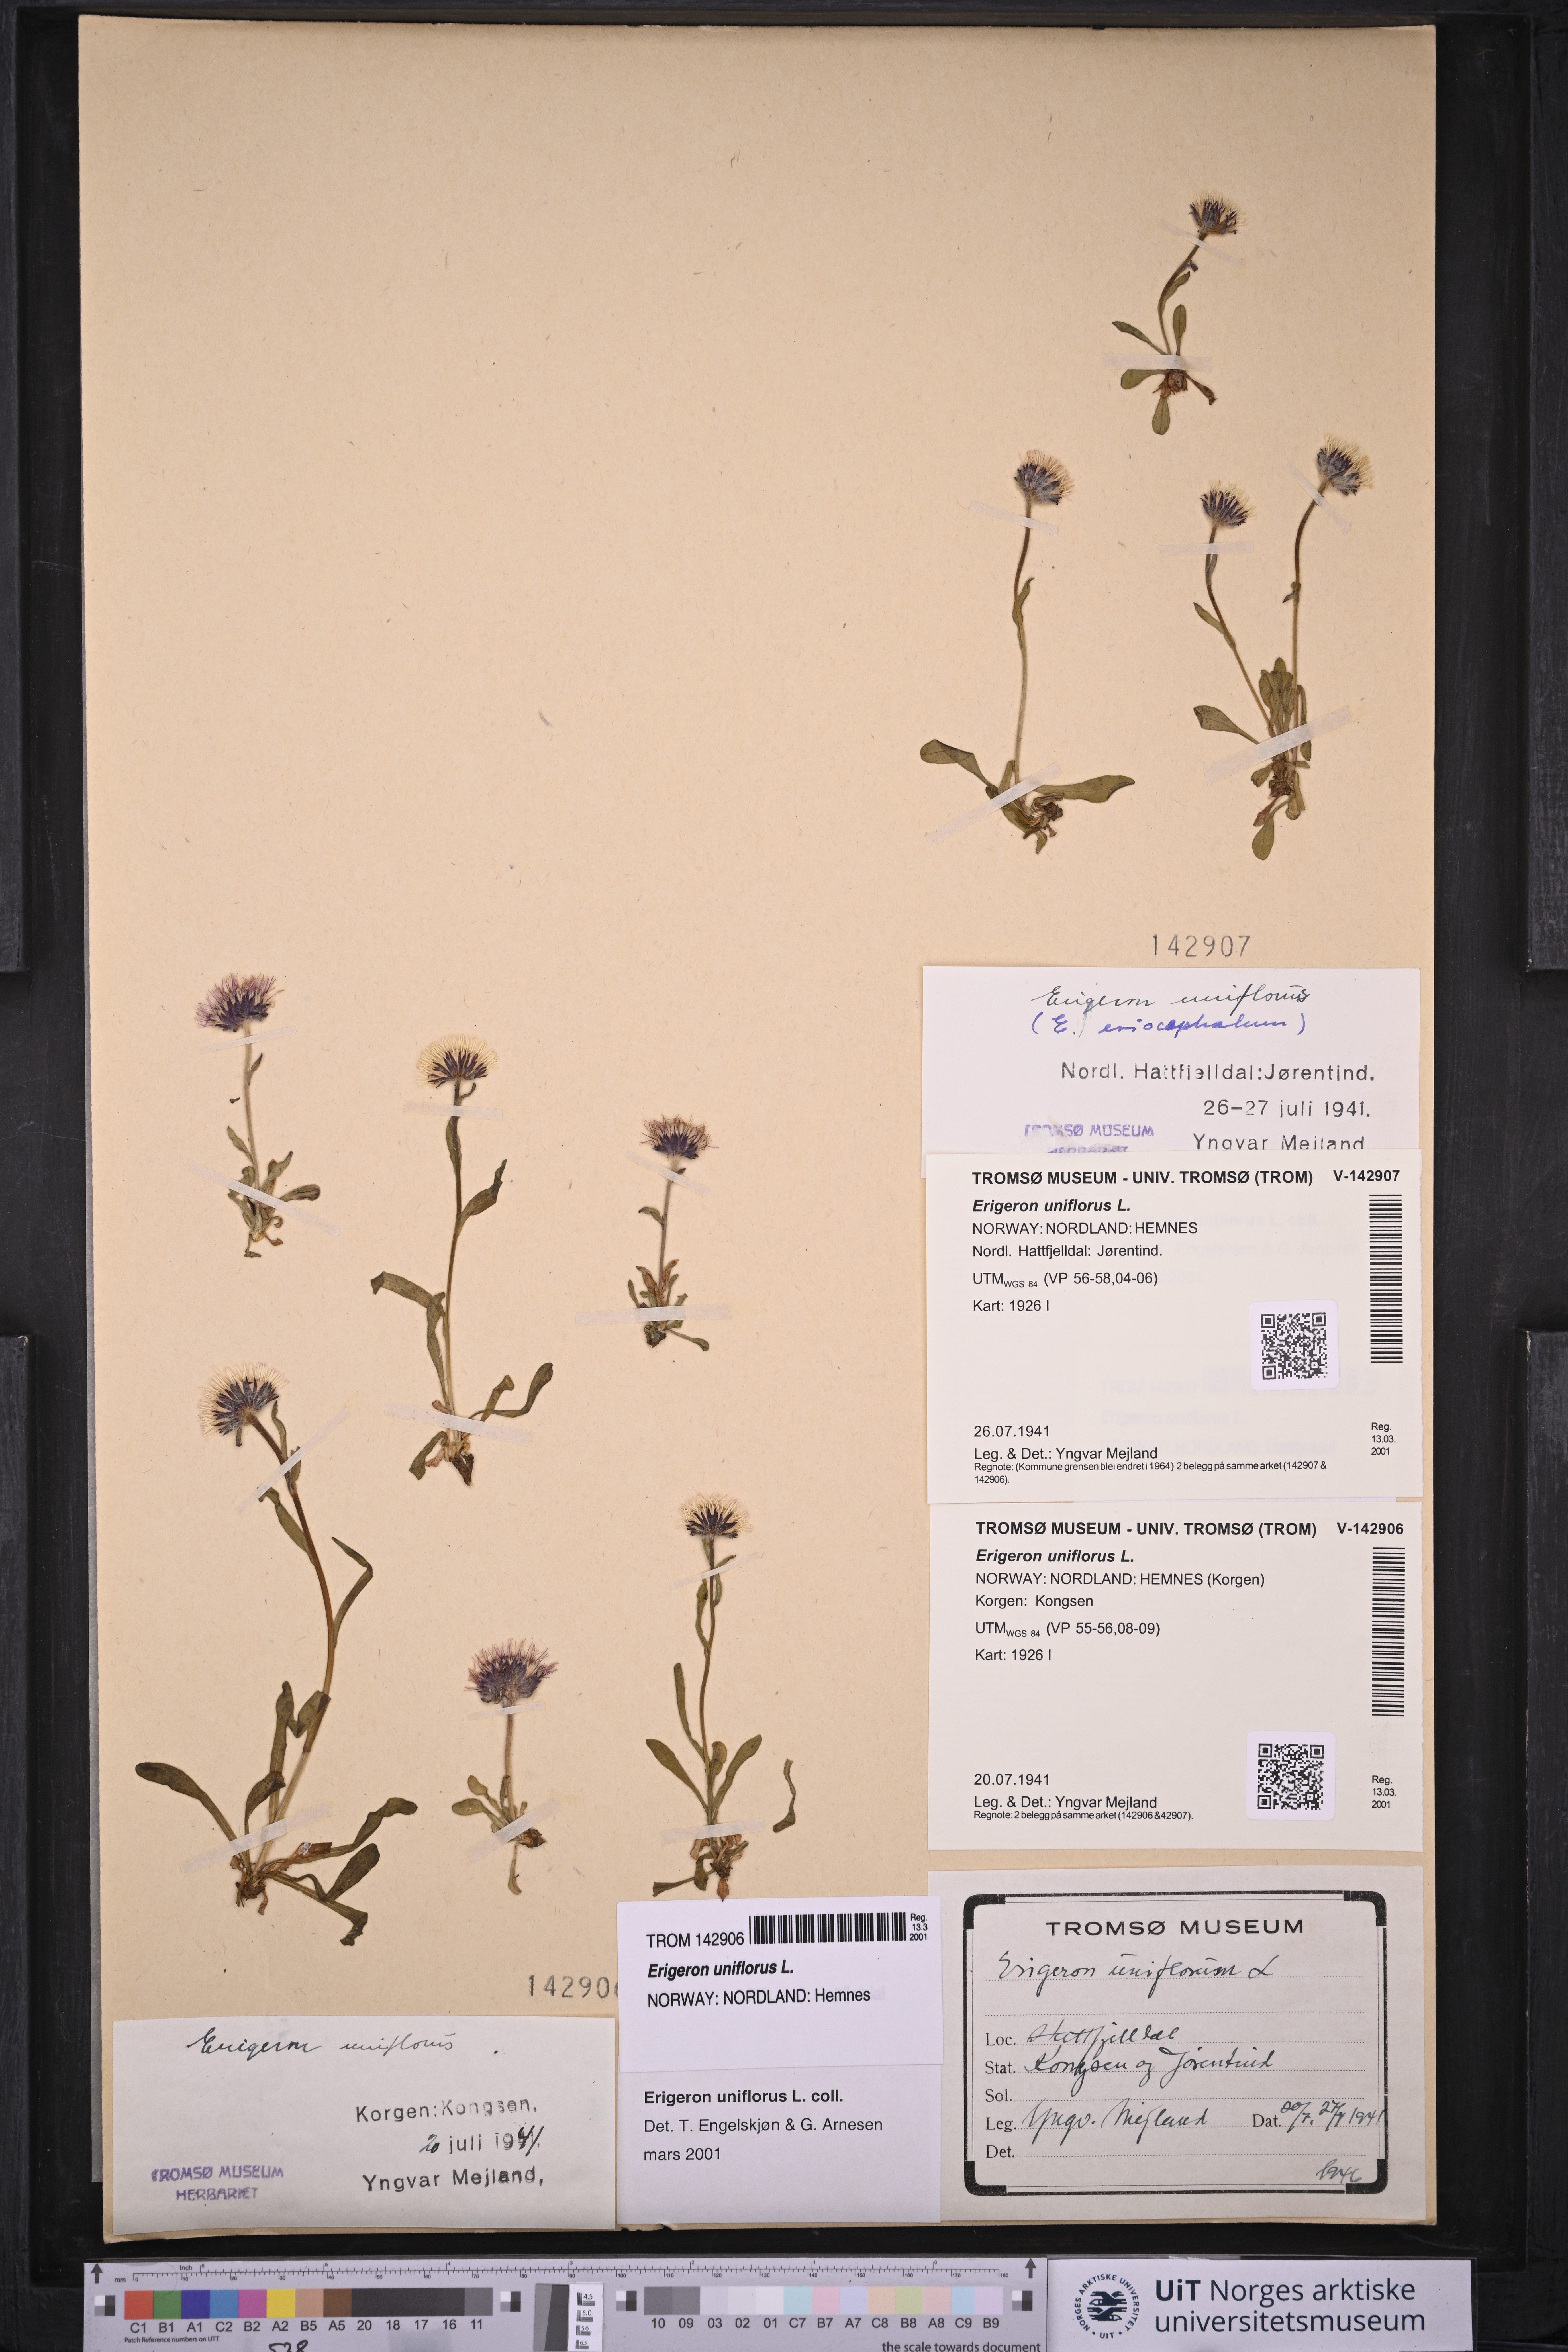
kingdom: Plantae
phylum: Tracheophyta
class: Magnoliopsida
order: Asterales
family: Asteraceae
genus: Erigeron
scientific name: Erigeron uniflorus
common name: Northern daisy
